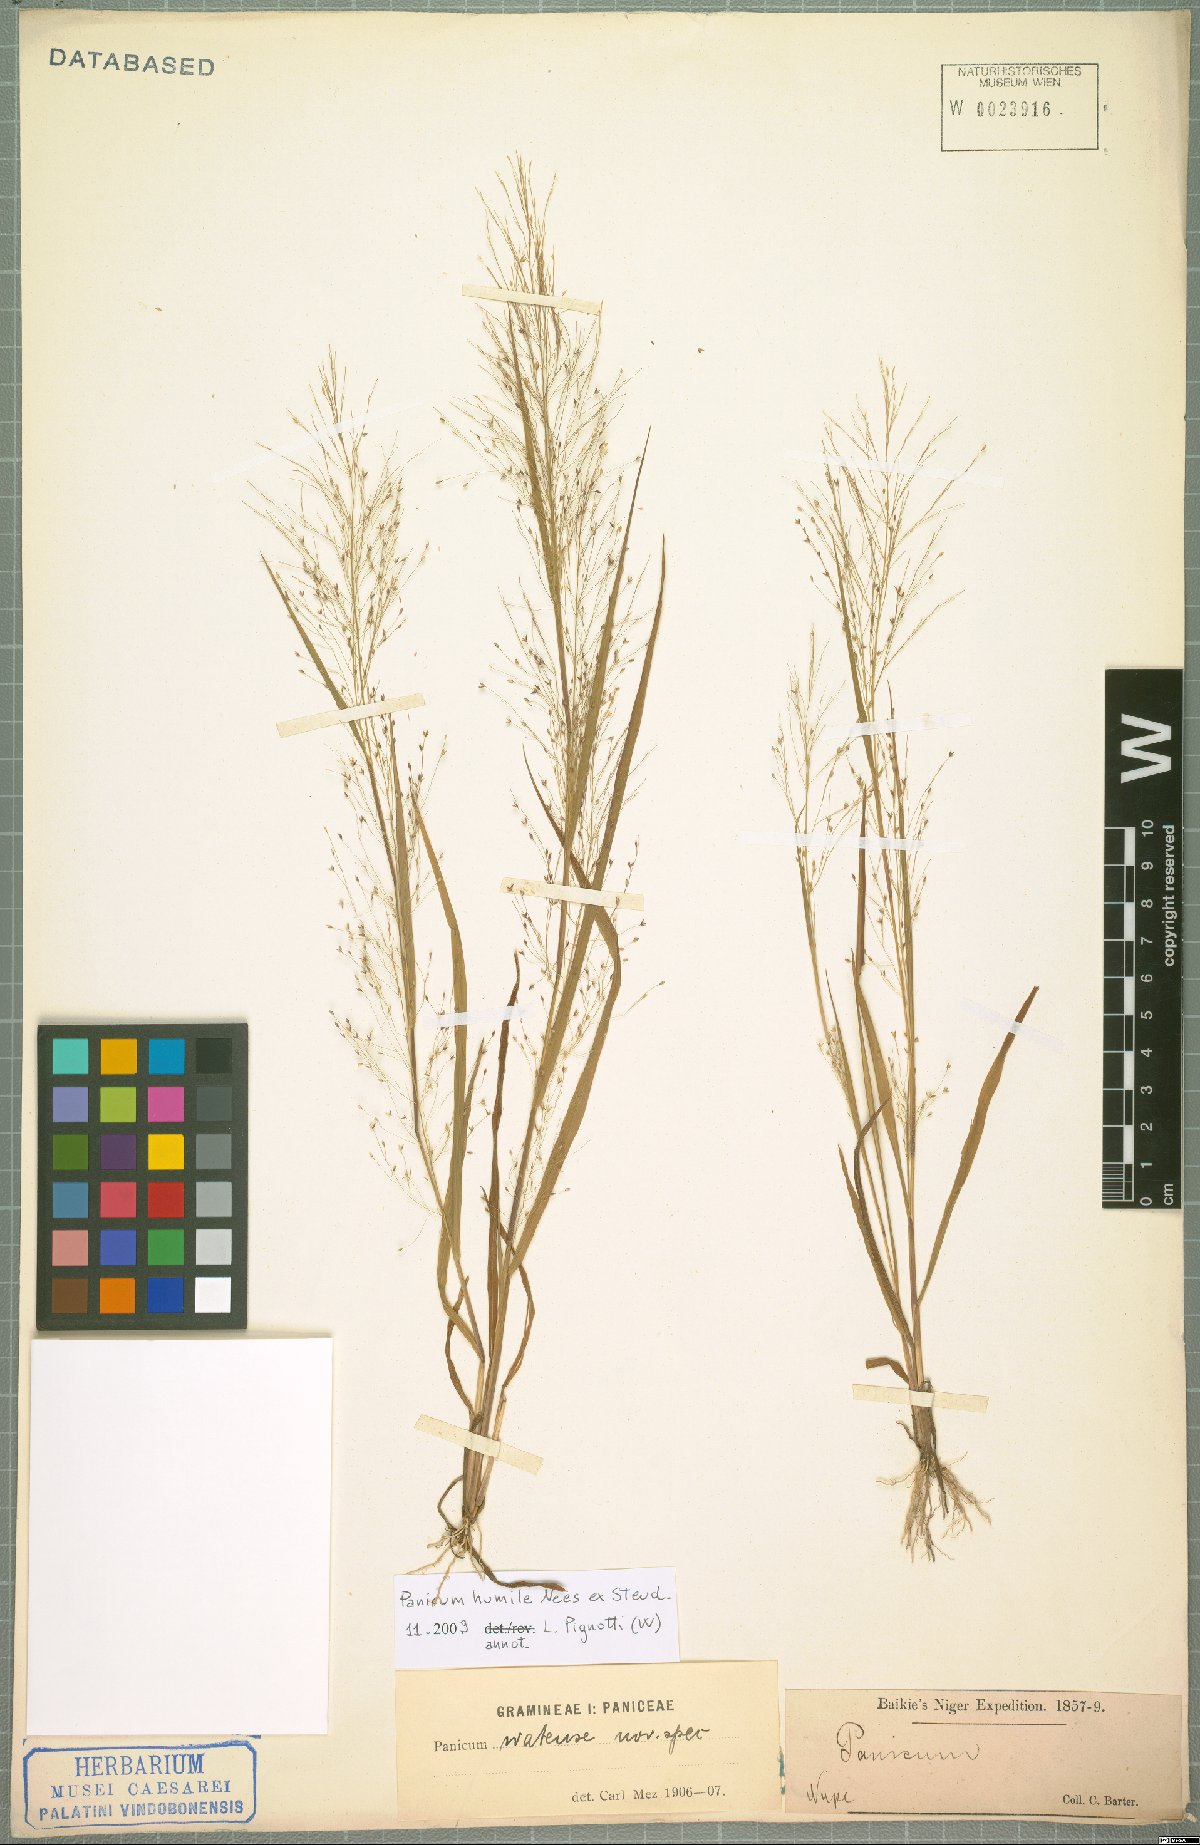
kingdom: Plantae
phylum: Tracheophyta
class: Liliopsida
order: Poales
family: Poaceae
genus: Panicum
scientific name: Panicum humile
